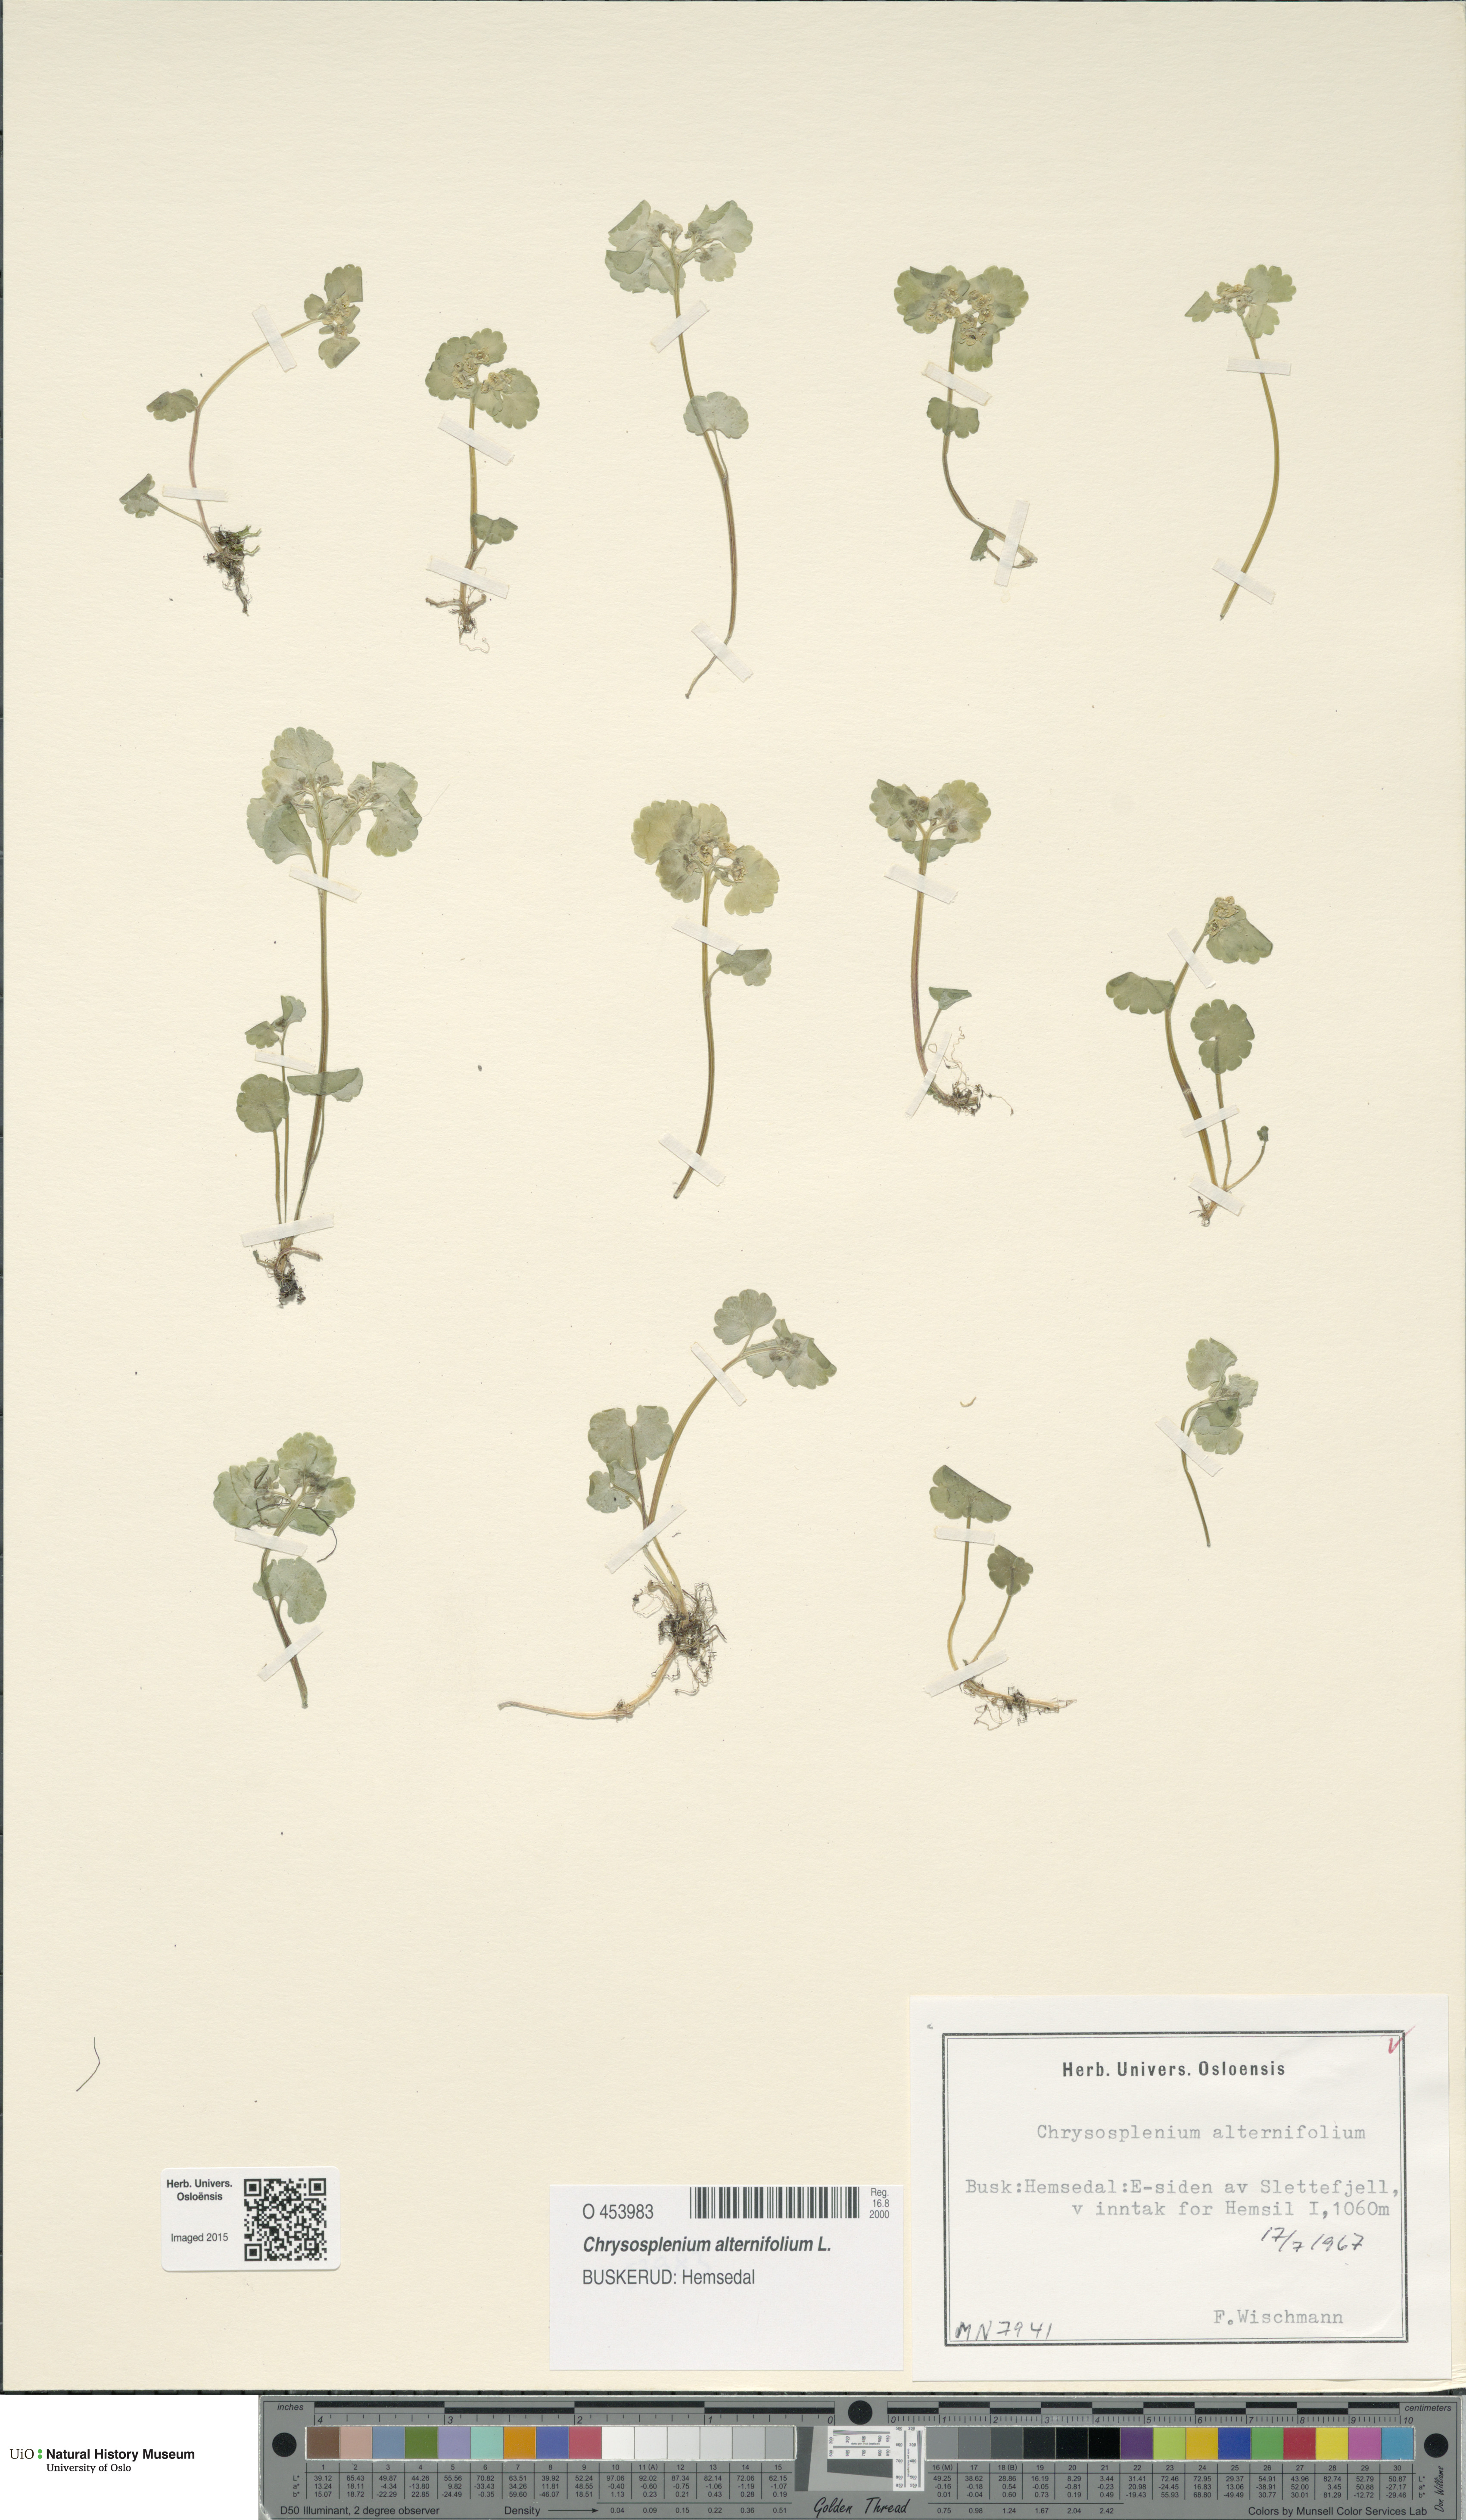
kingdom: Plantae
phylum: Tracheophyta
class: Magnoliopsida
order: Saxifragales
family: Saxifragaceae
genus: Chrysosplenium
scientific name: Chrysosplenium alternifolium
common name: Alternate-leaved golden-saxifrage
